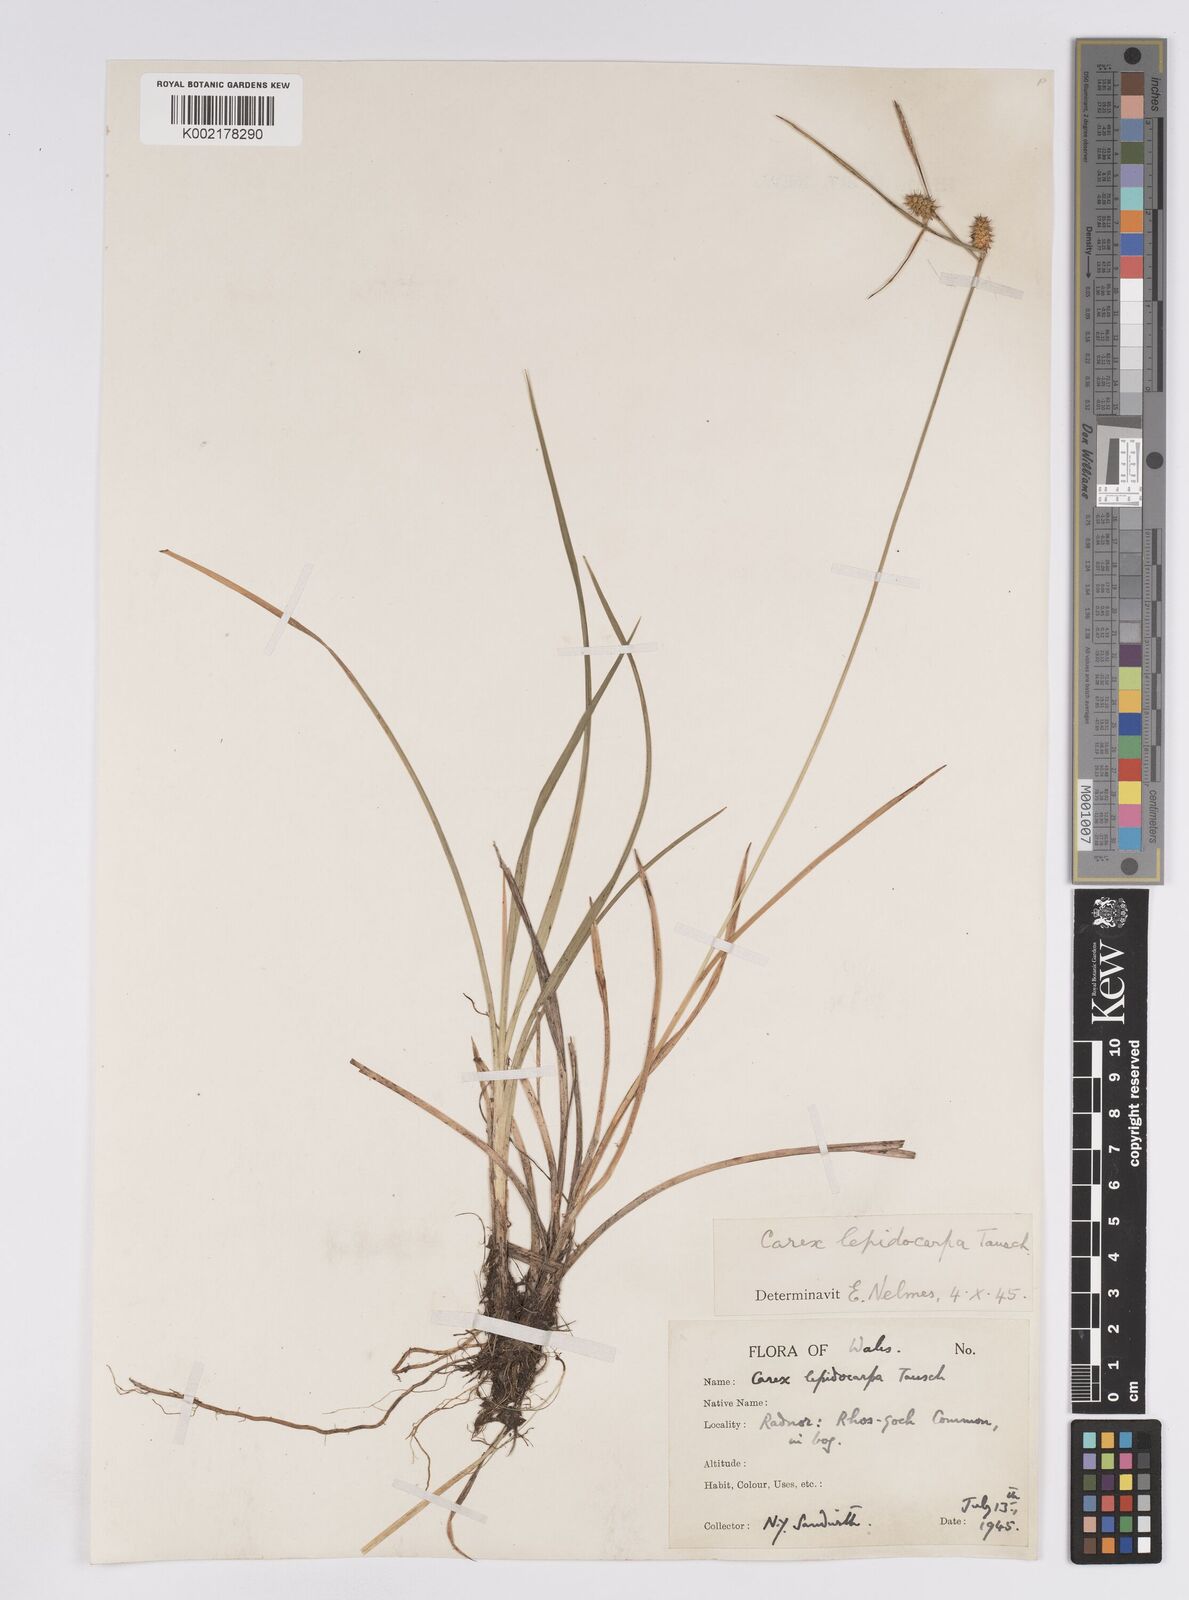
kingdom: Plantae
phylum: Tracheophyta
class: Liliopsida
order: Poales
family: Cyperaceae
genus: Carex
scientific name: Carex demissa
